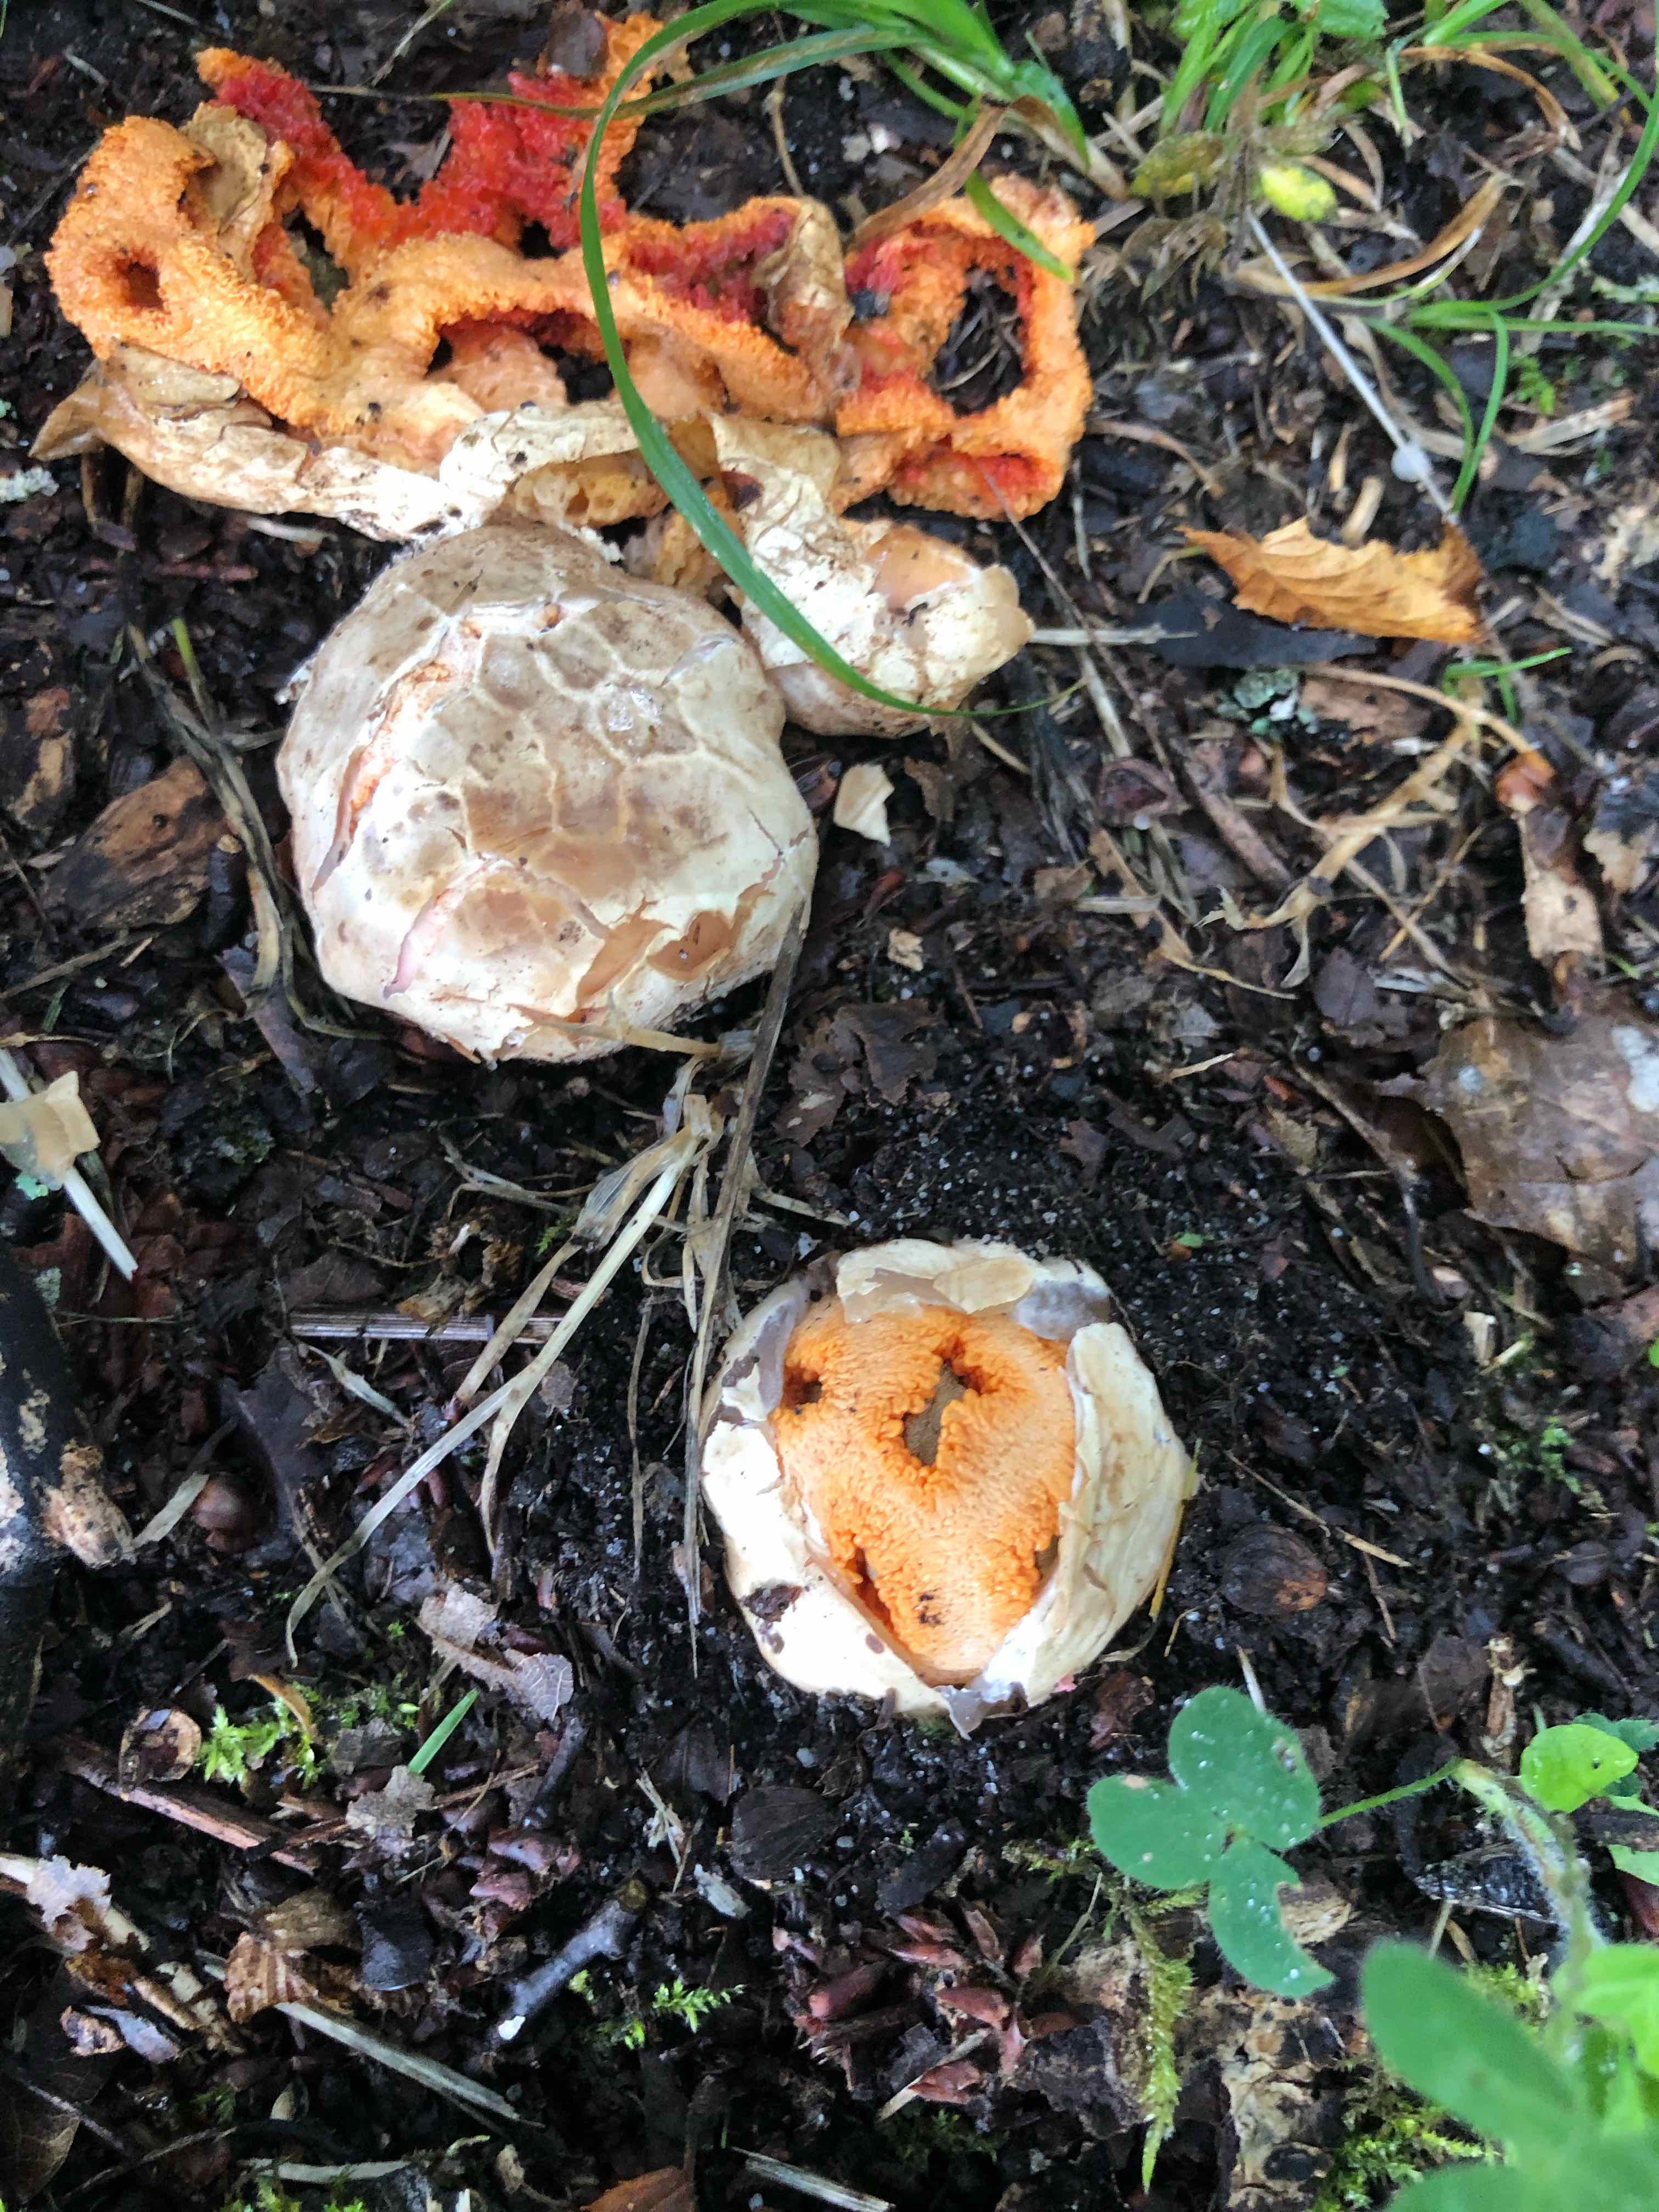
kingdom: Fungi
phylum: Basidiomycota
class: Agaricomycetes
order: Phallales
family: Phallaceae
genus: Clathrus
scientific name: Clathrus ruber
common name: rød gitterkugle
